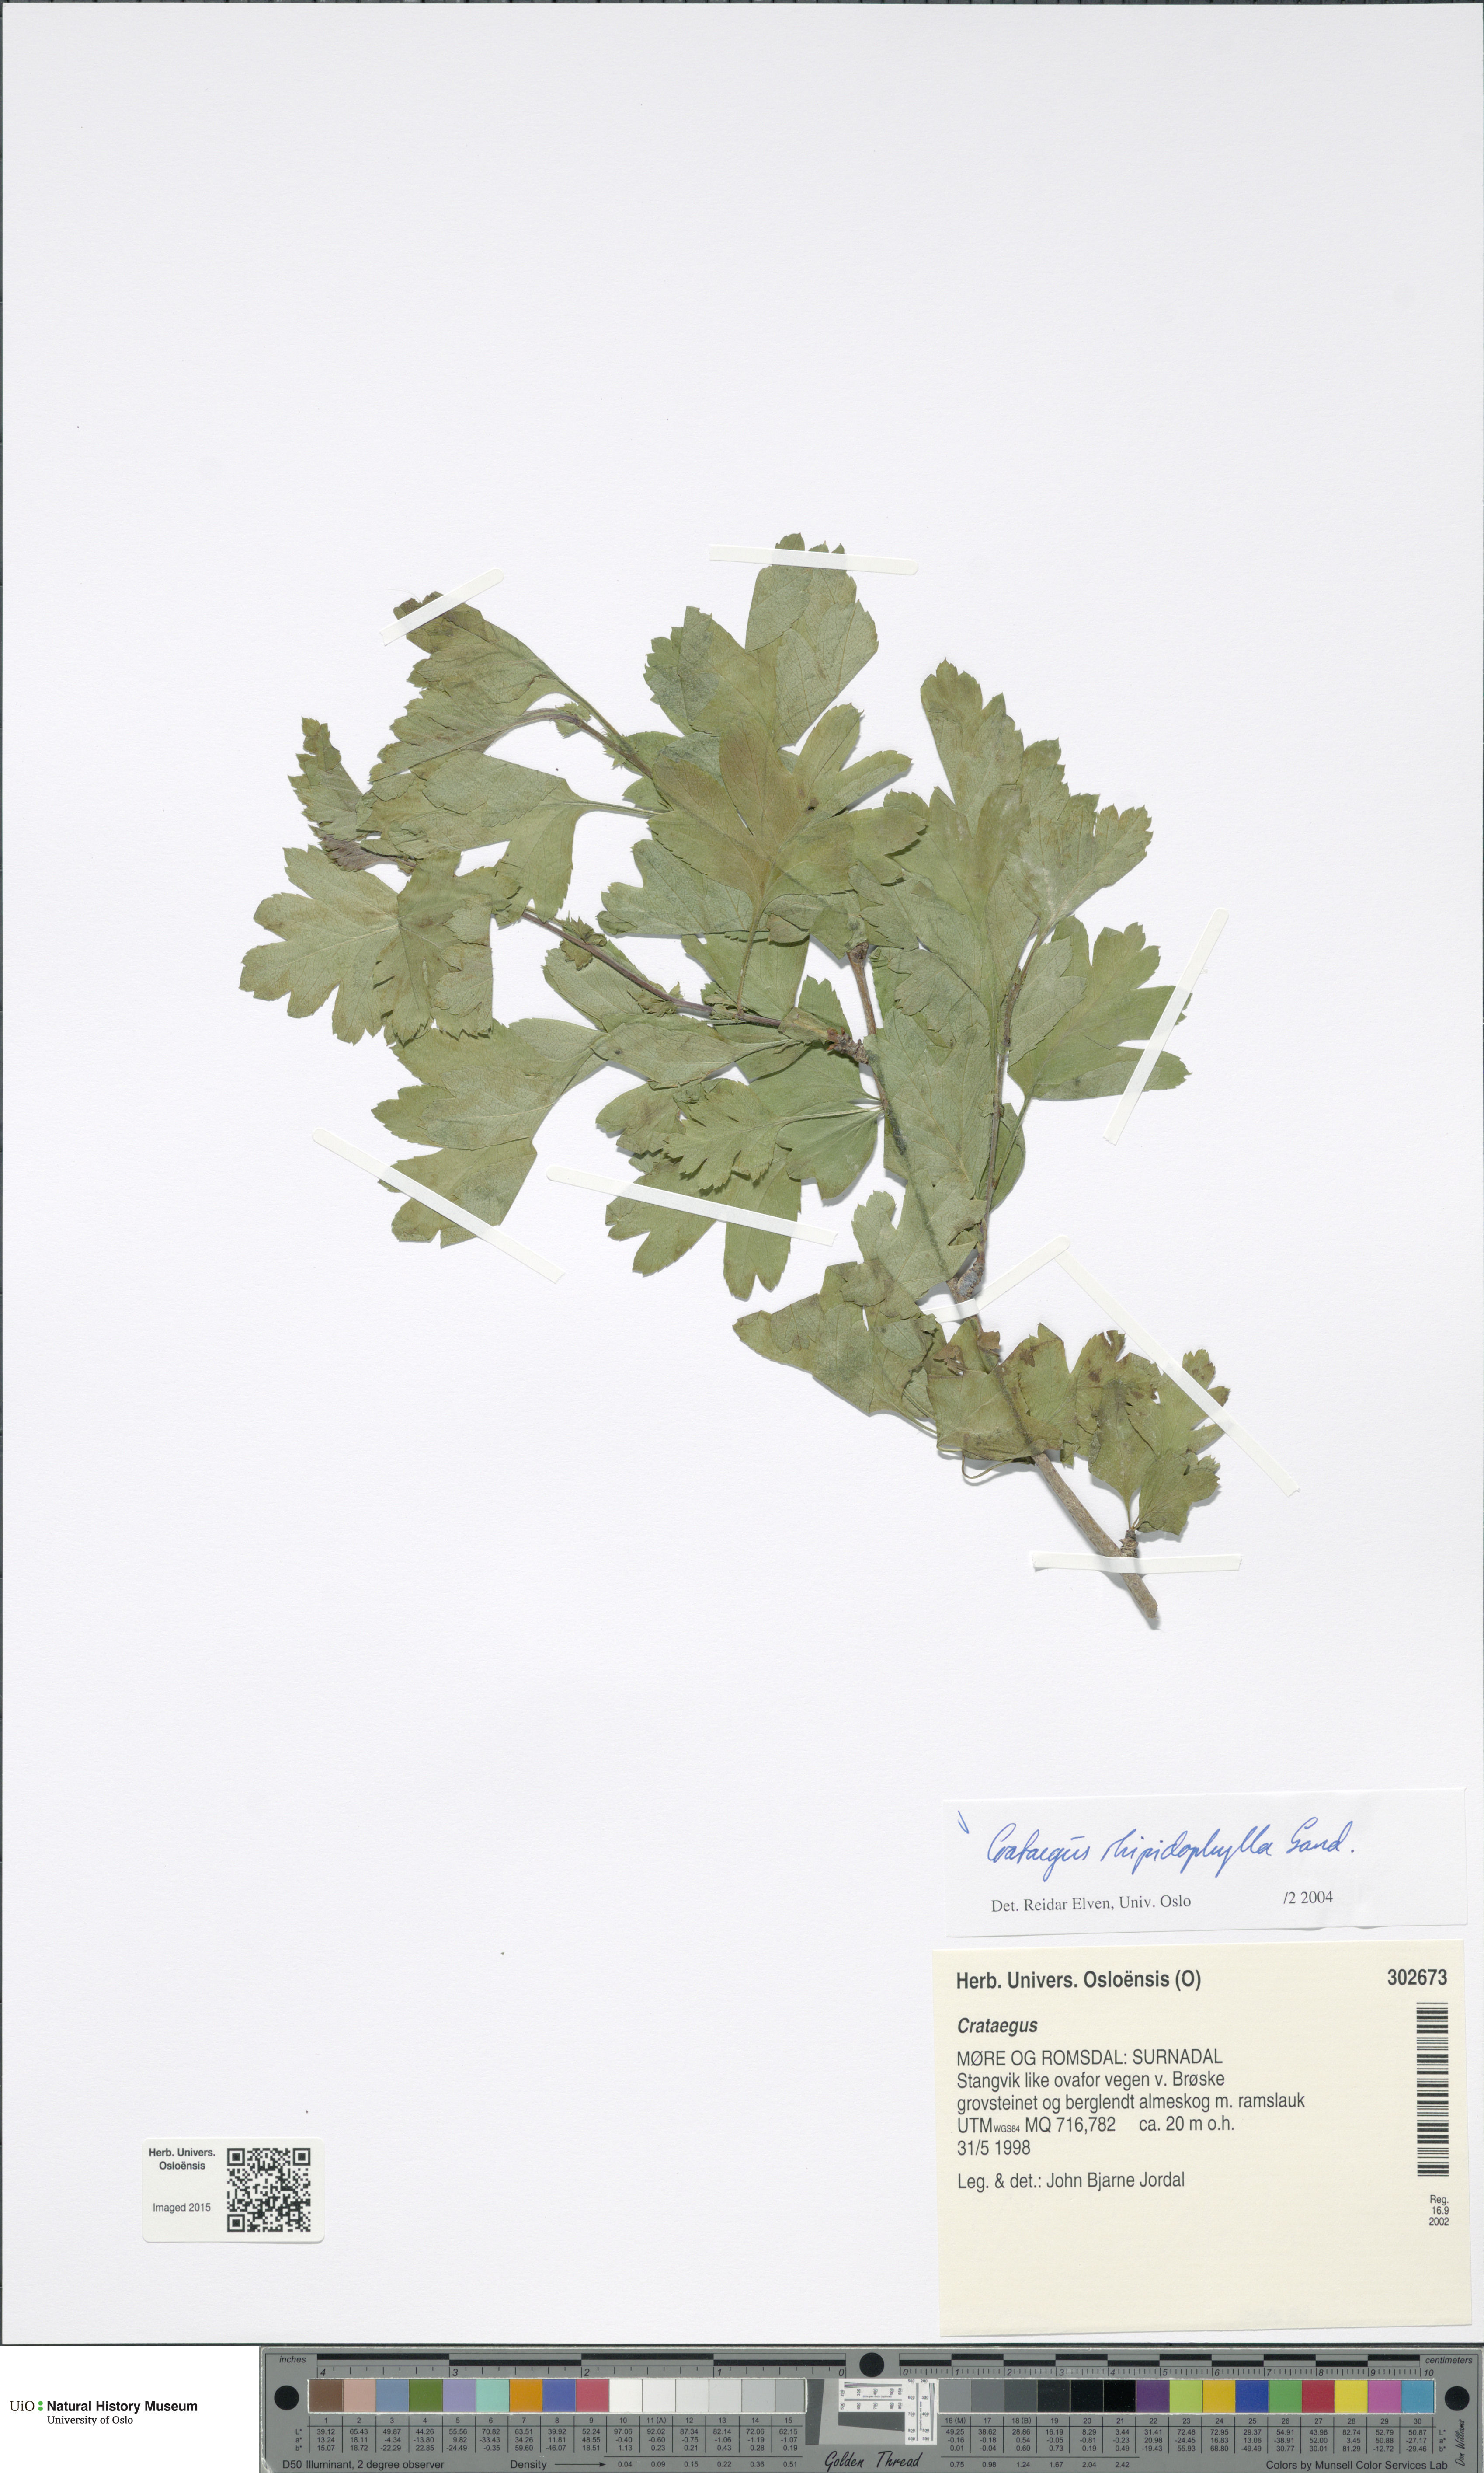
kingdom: Plantae
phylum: Tracheophyta
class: Magnoliopsida
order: Rosales
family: Rosaceae
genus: Crataegus
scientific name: Crataegus rhipidophylla
